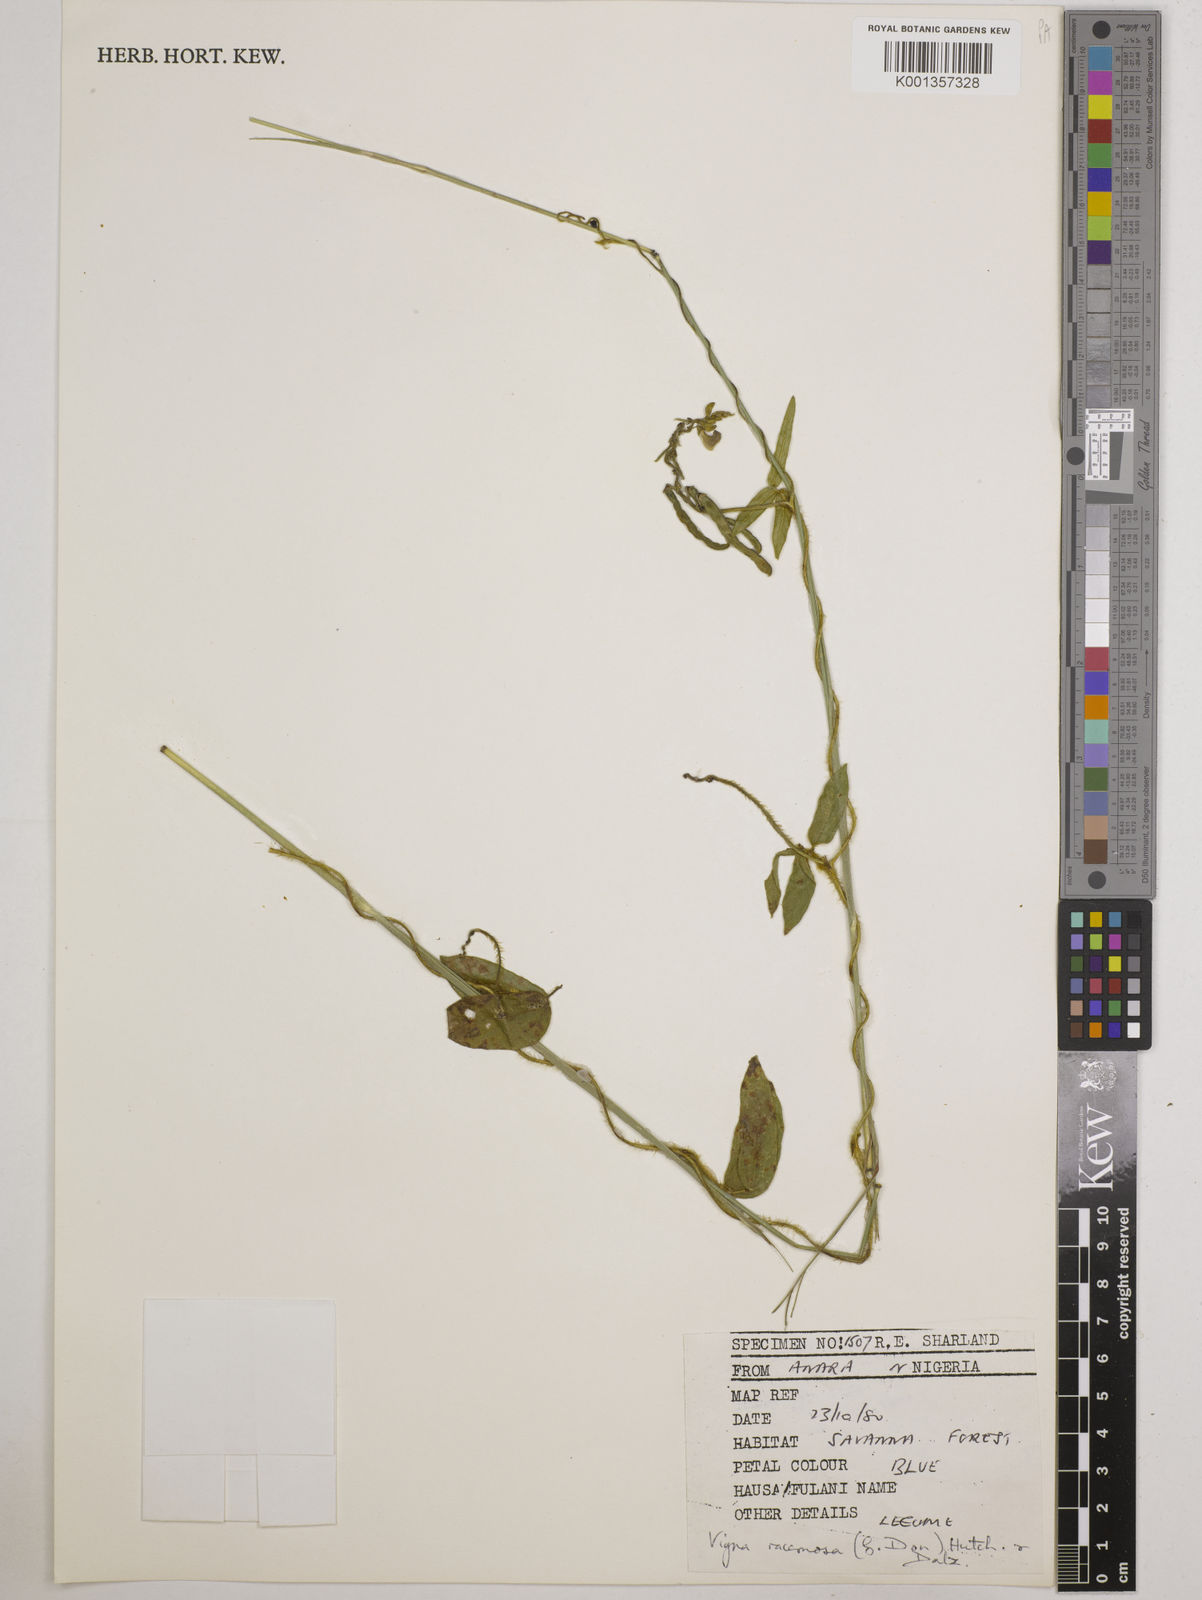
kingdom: Plantae
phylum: Tracheophyta
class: Magnoliopsida
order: Fabales
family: Fabaceae
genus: Vigna
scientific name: Vigna racemosa
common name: Beans not eaten
